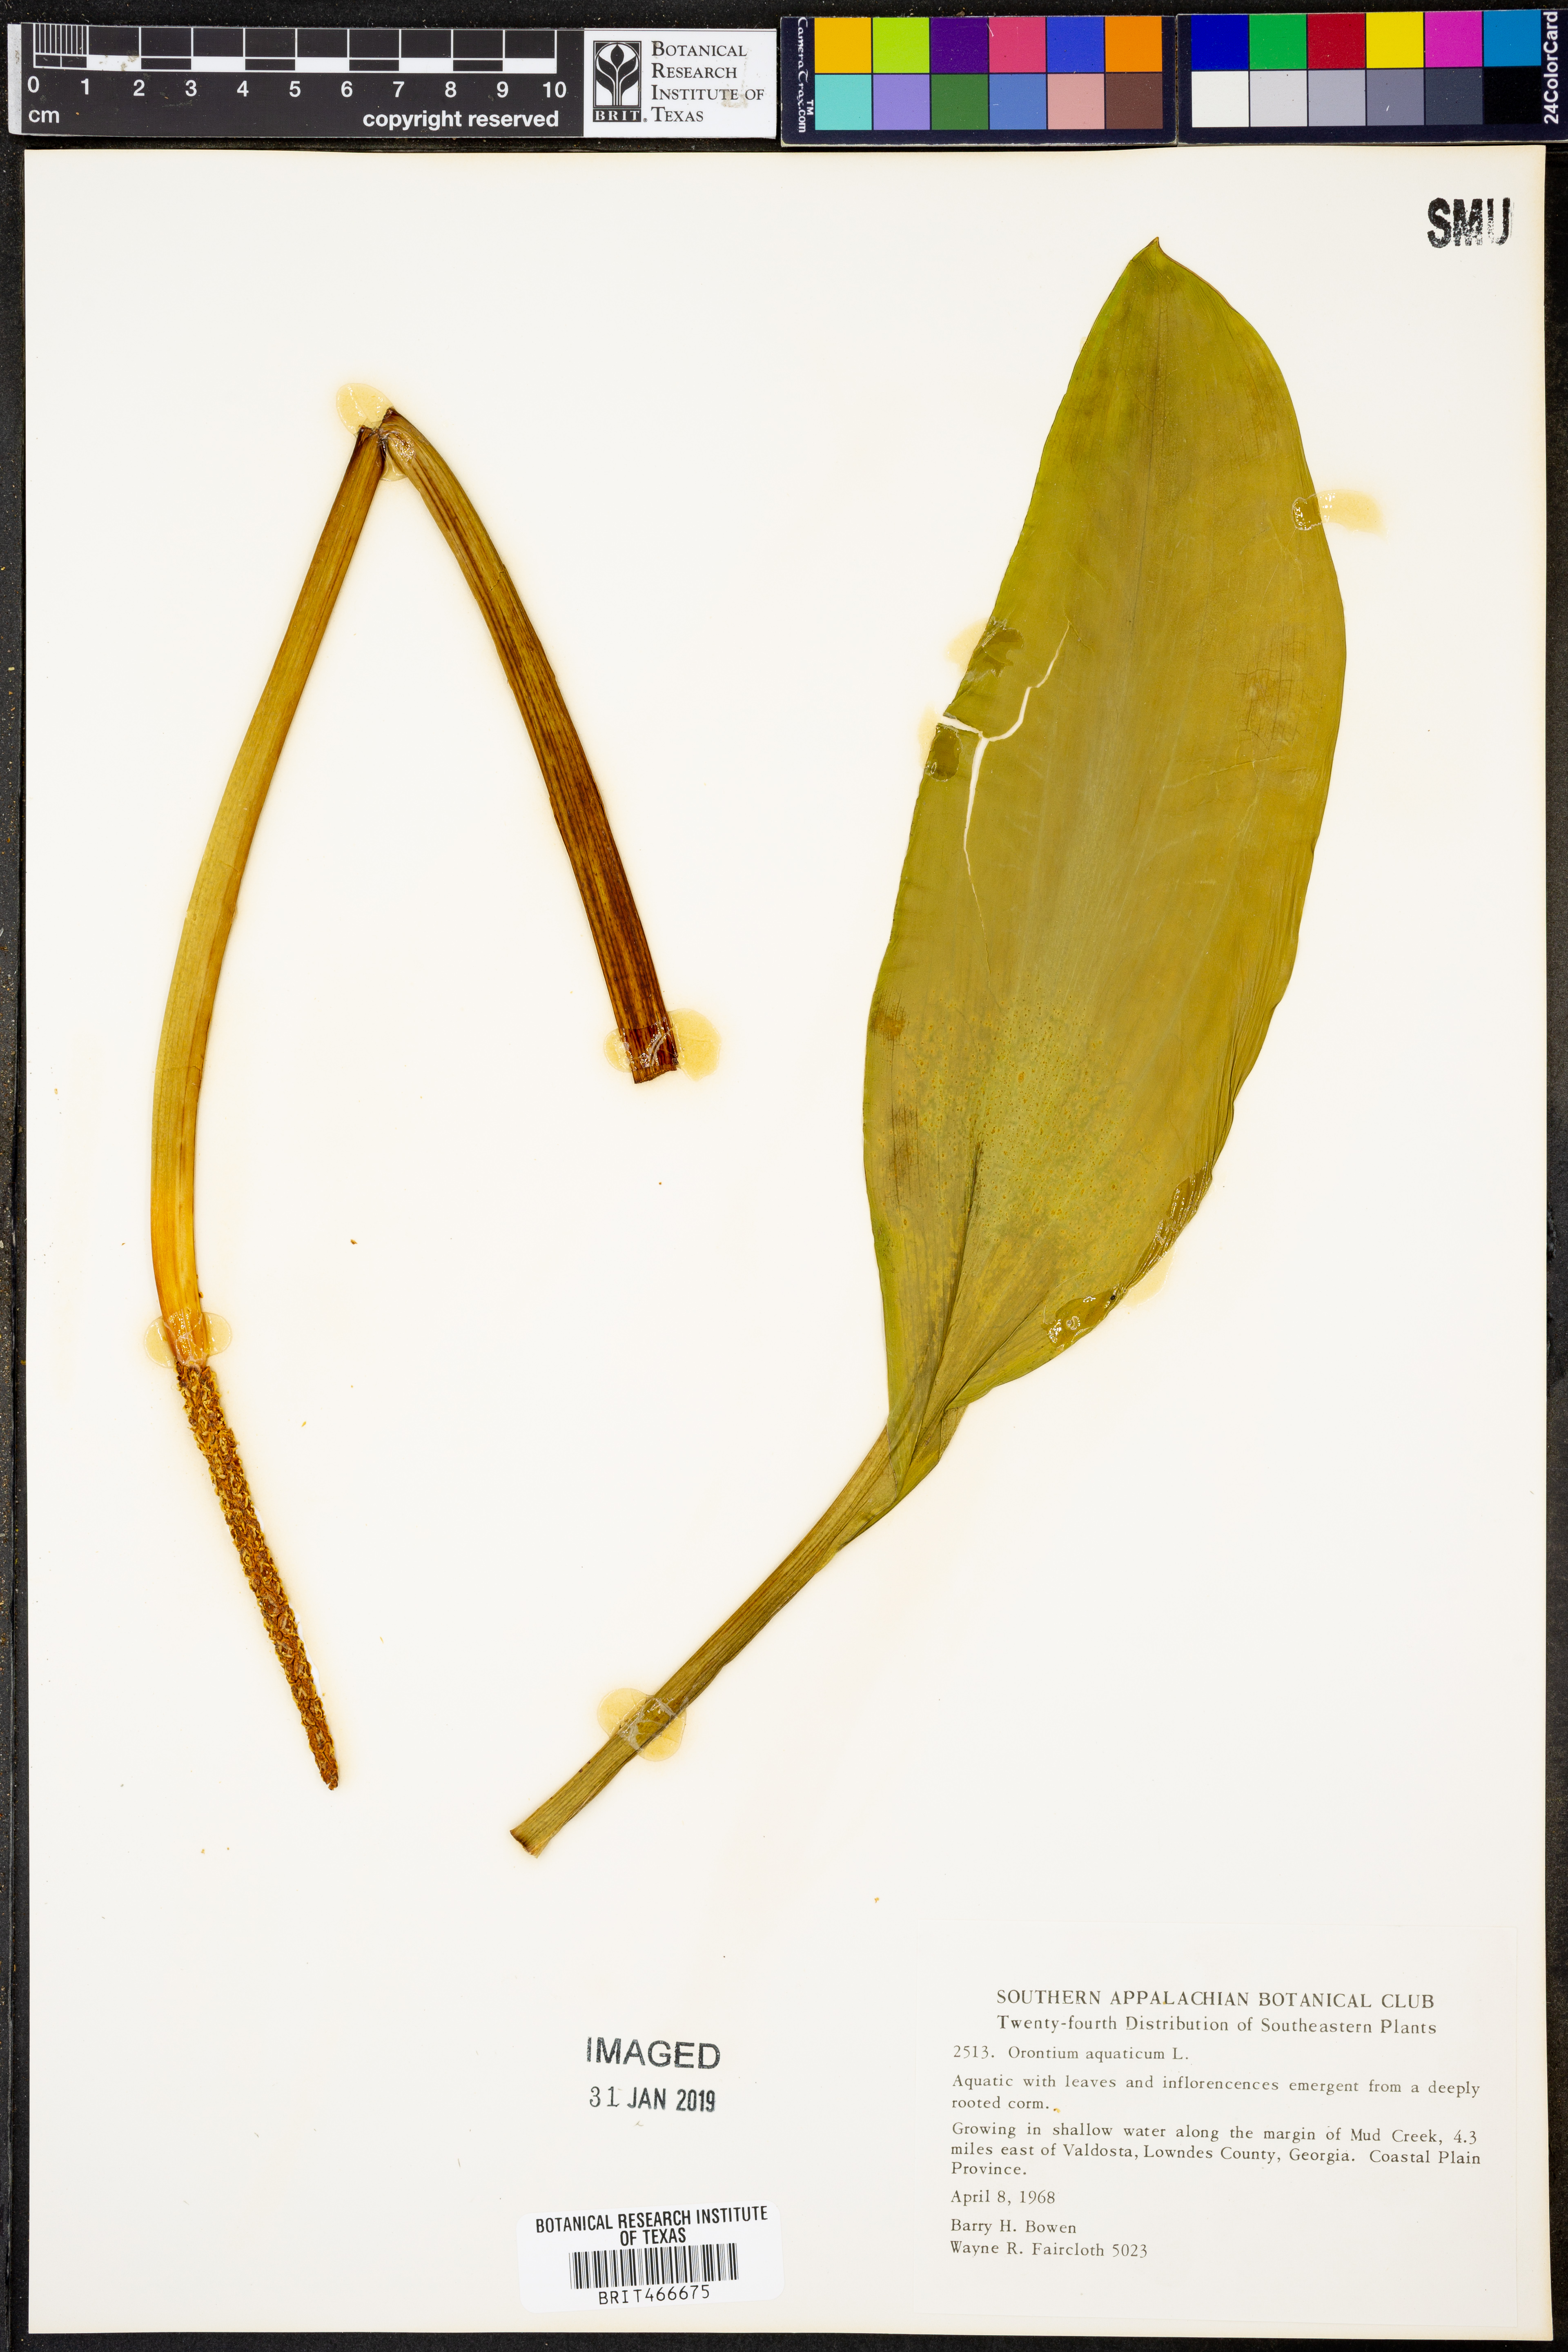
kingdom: Plantae
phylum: Tracheophyta
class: Liliopsida
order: Alismatales
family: Araceae
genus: Orontium
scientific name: Orontium aquaticum
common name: Golden-club
